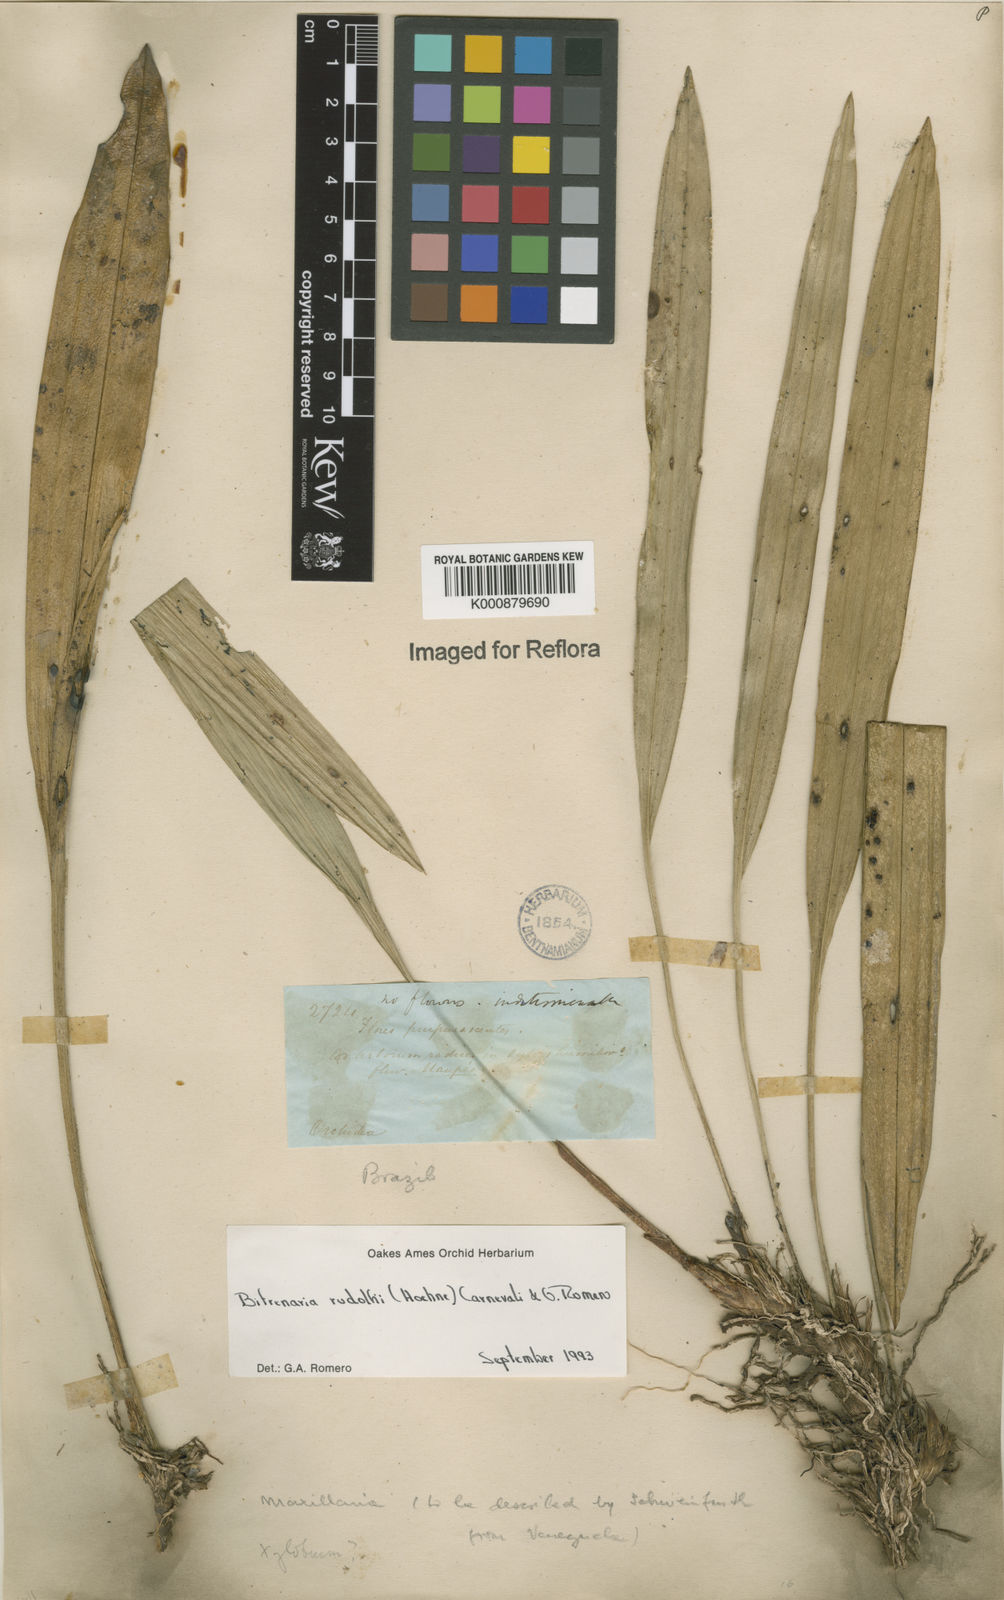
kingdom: Plantae
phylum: Tracheophyta
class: Liliopsida
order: Asparagales
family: Orchidaceae
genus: Maxillaria
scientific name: Maxillaria petiolaris
